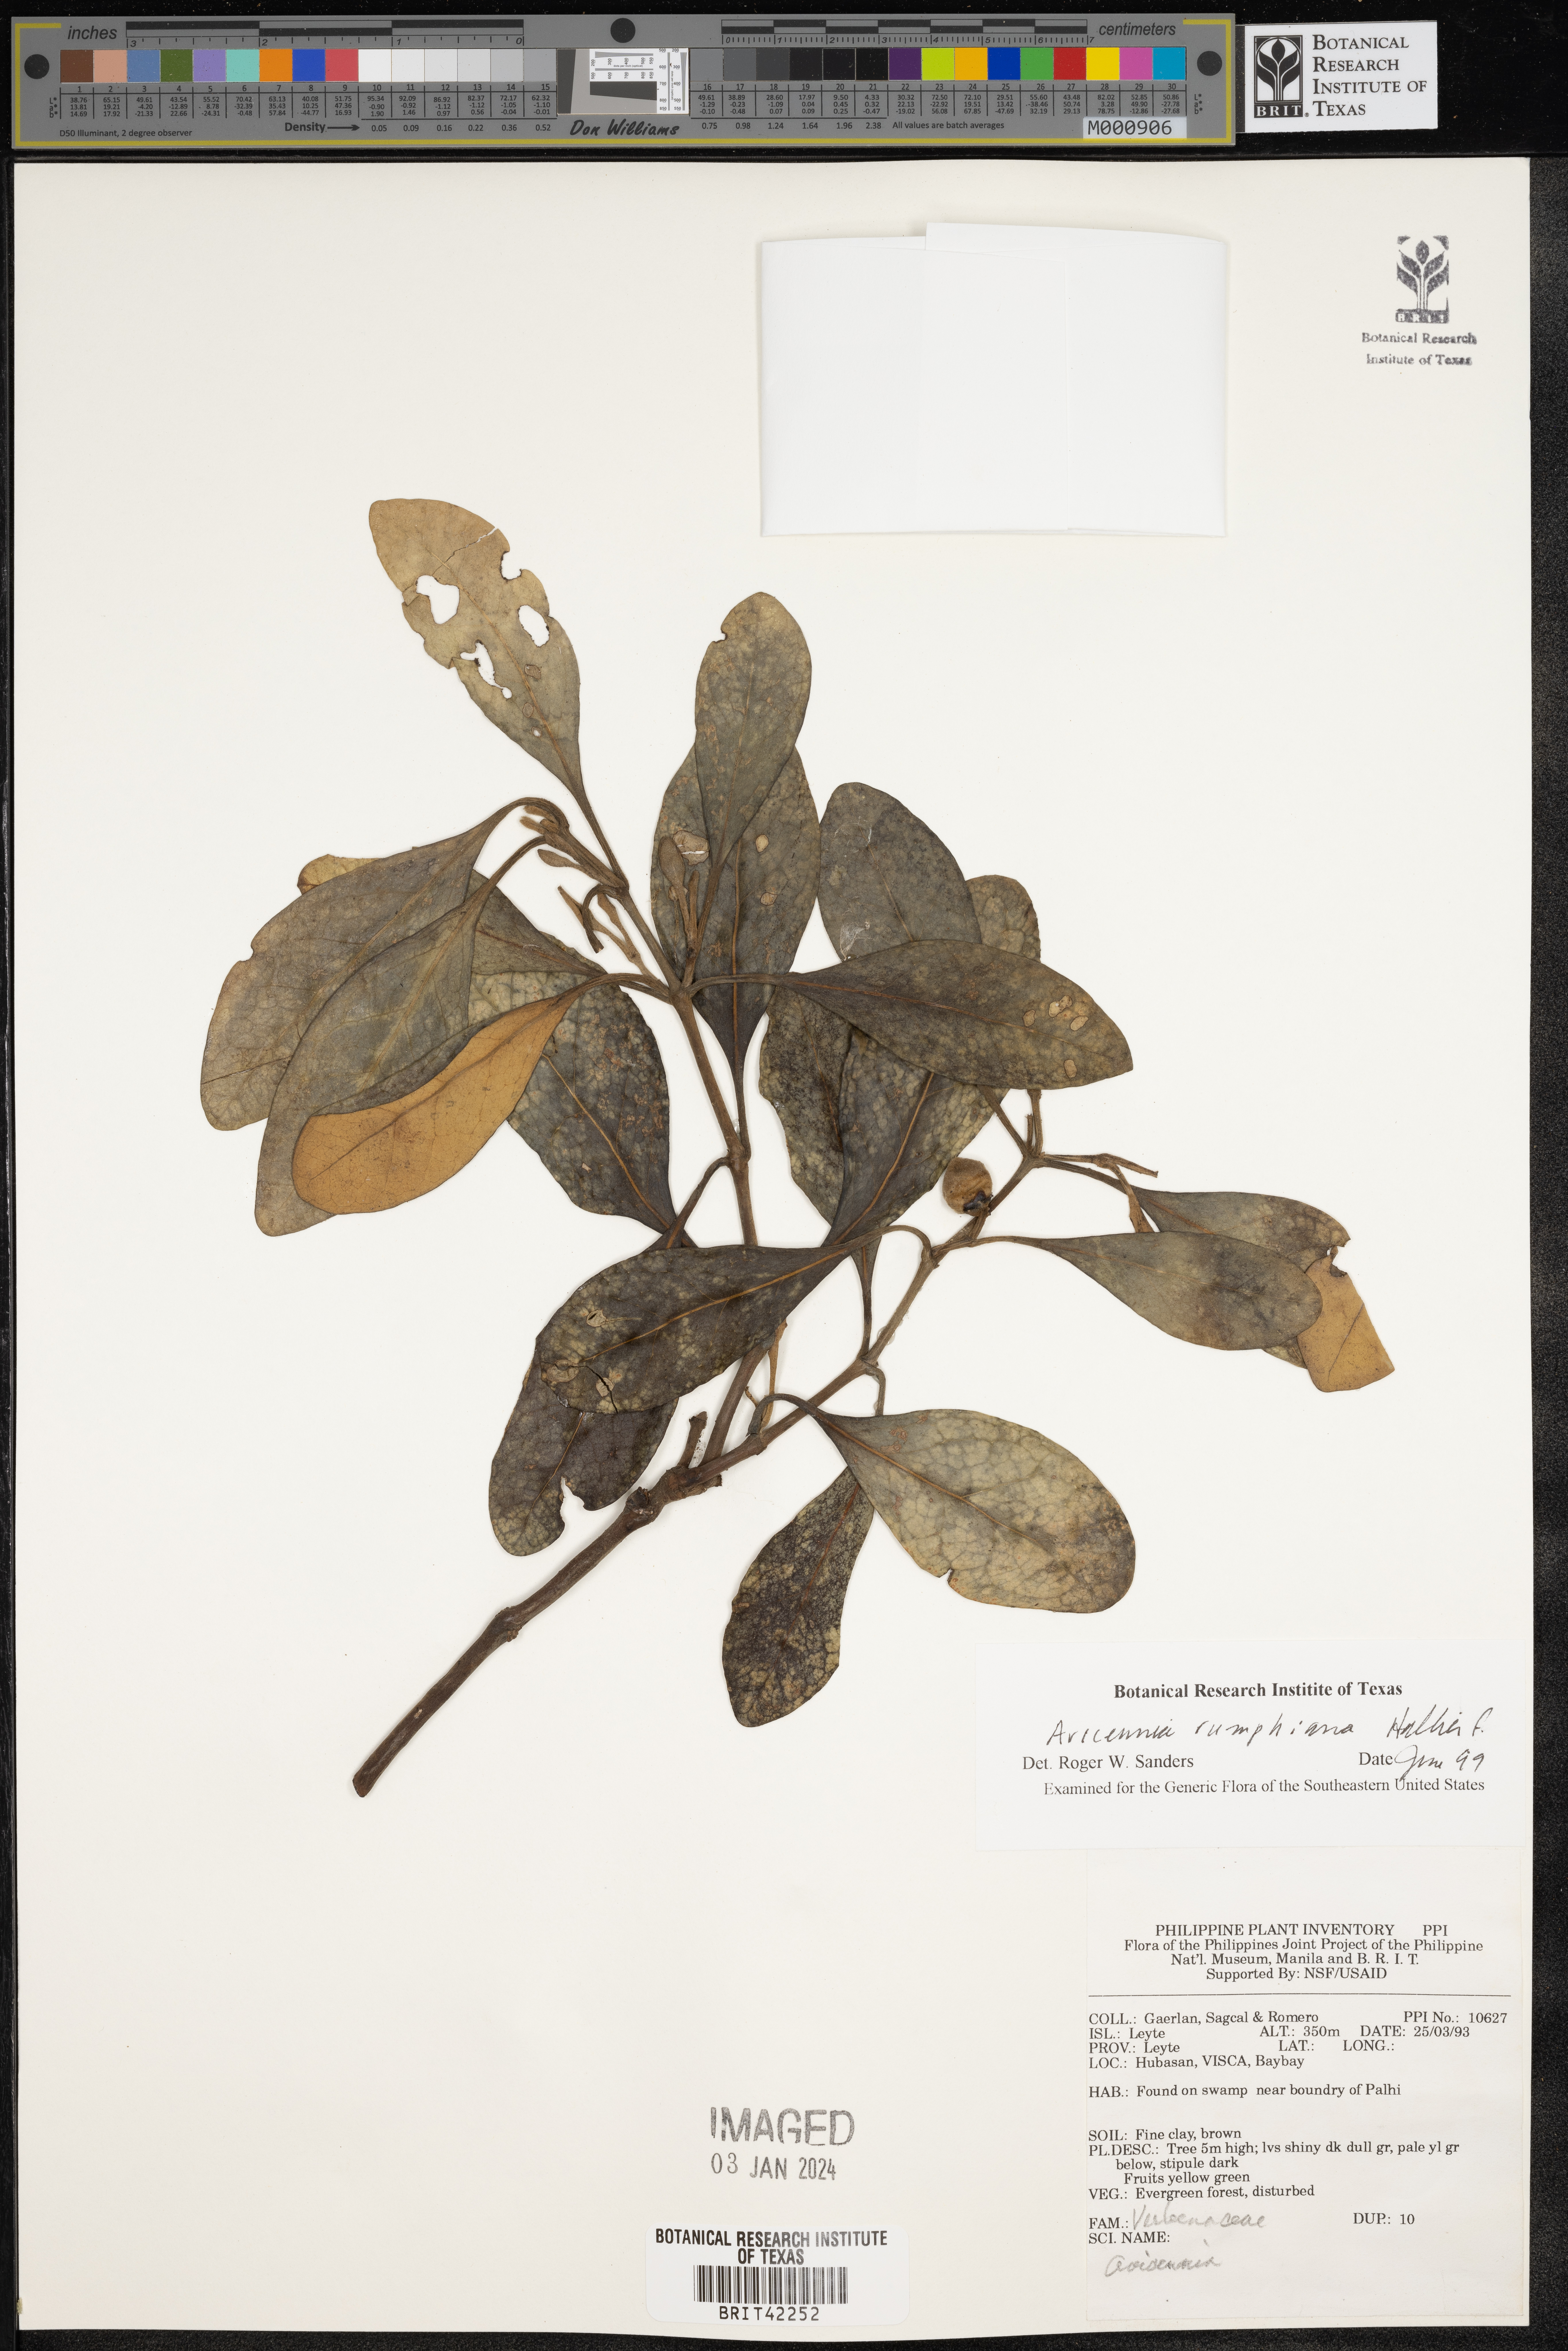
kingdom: Plantae
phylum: Tracheophyta
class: Magnoliopsida
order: Lamiales
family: Acanthaceae
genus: Avicennia
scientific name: Avicennia marina
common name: Gray mangrove
